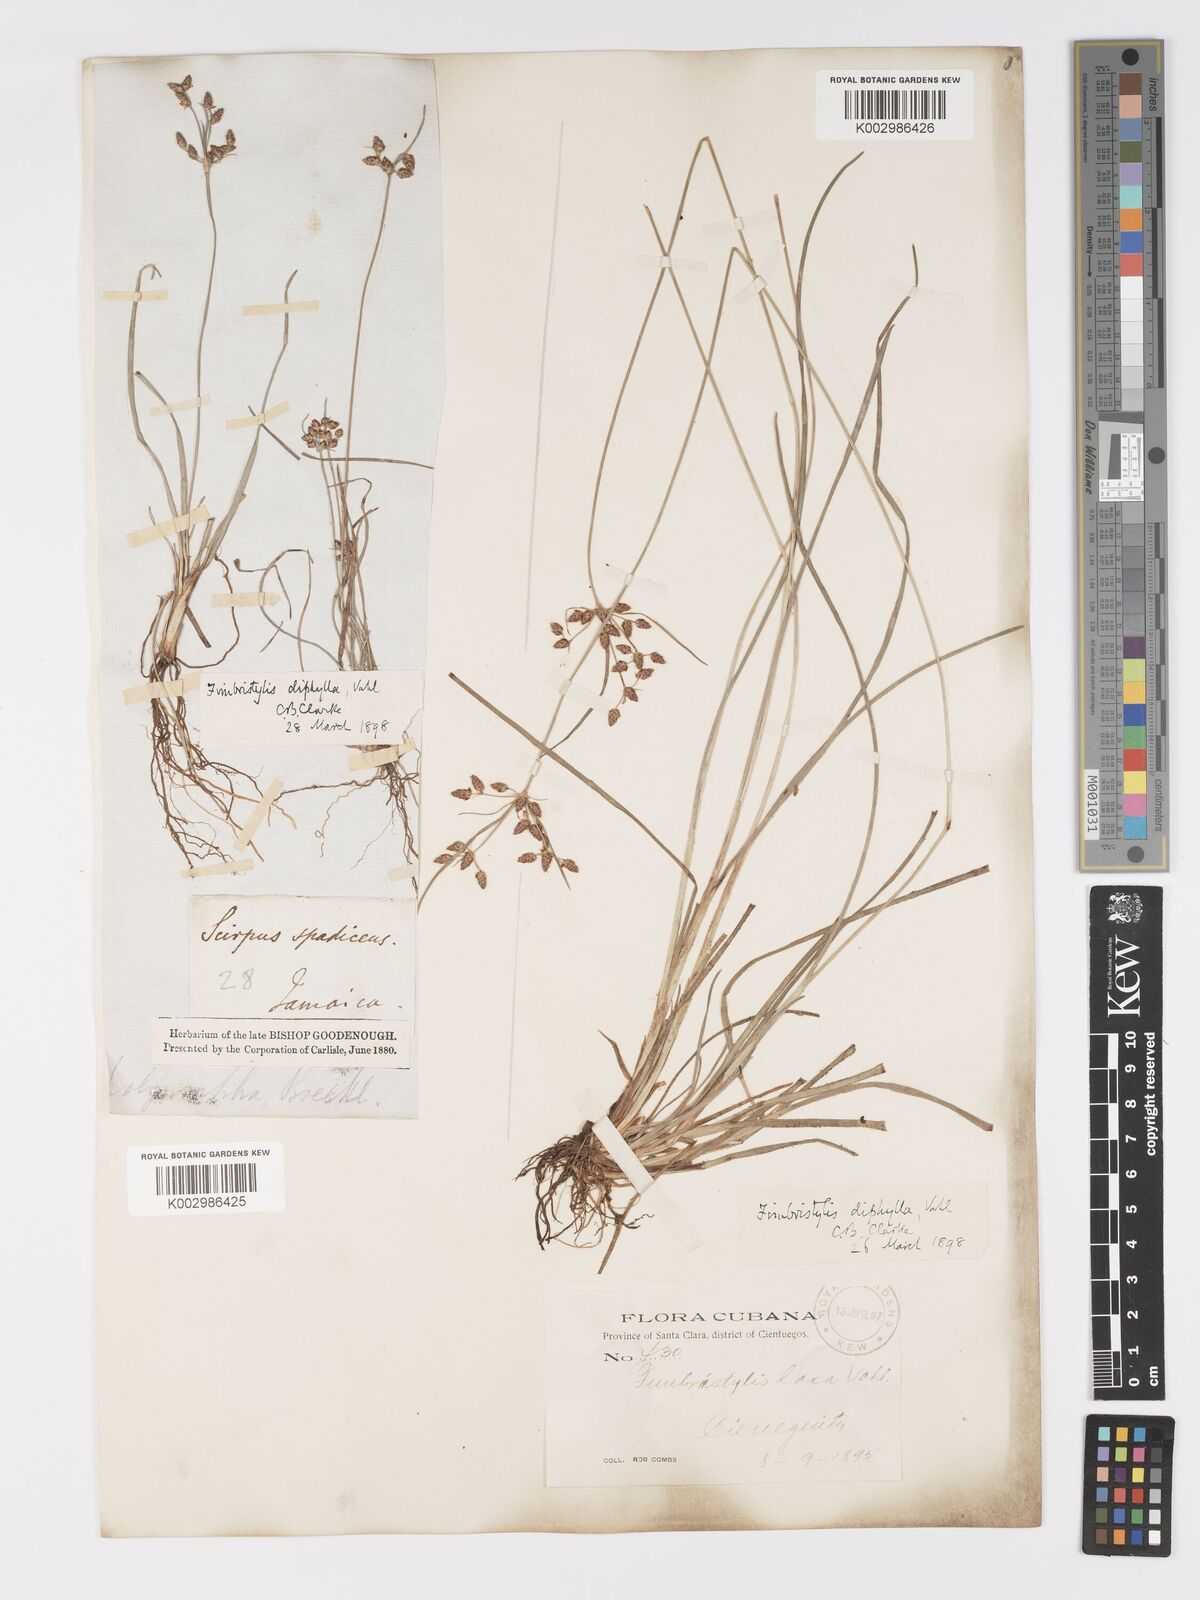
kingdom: Plantae
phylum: Tracheophyta
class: Liliopsida
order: Poales
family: Cyperaceae
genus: Fimbristylis
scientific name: Fimbristylis dichotoma
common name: Forked fimbry
